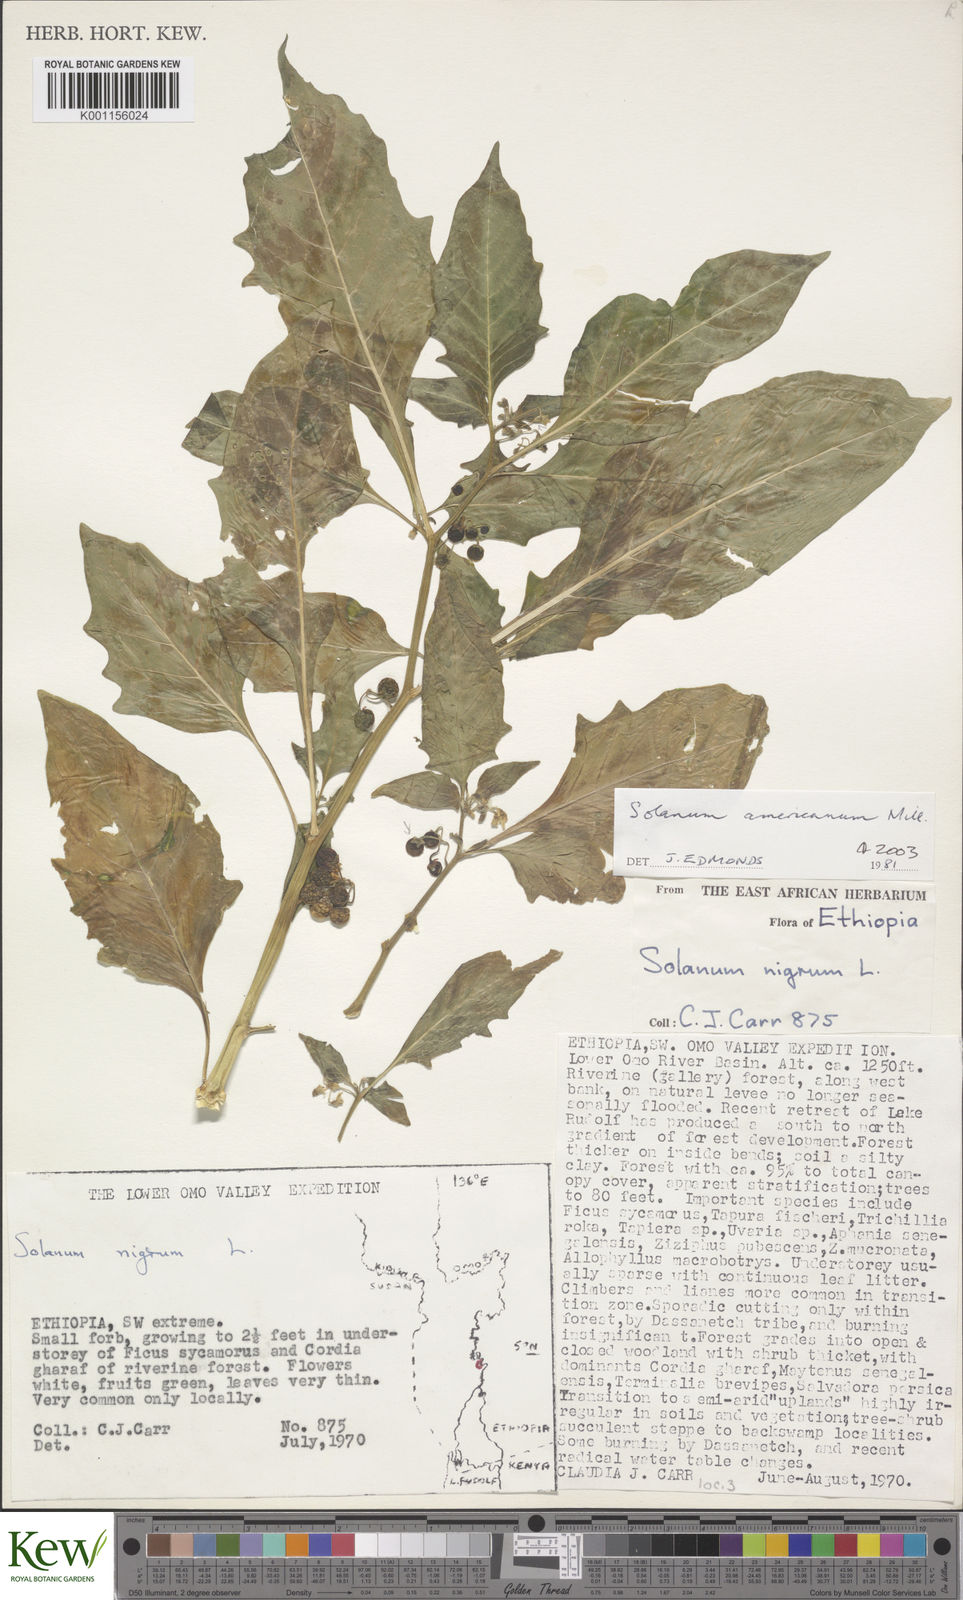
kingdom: Plantae
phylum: Tracheophyta
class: Magnoliopsida
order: Solanales
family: Solanaceae
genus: Solanum
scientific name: Solanum tarderemotum
